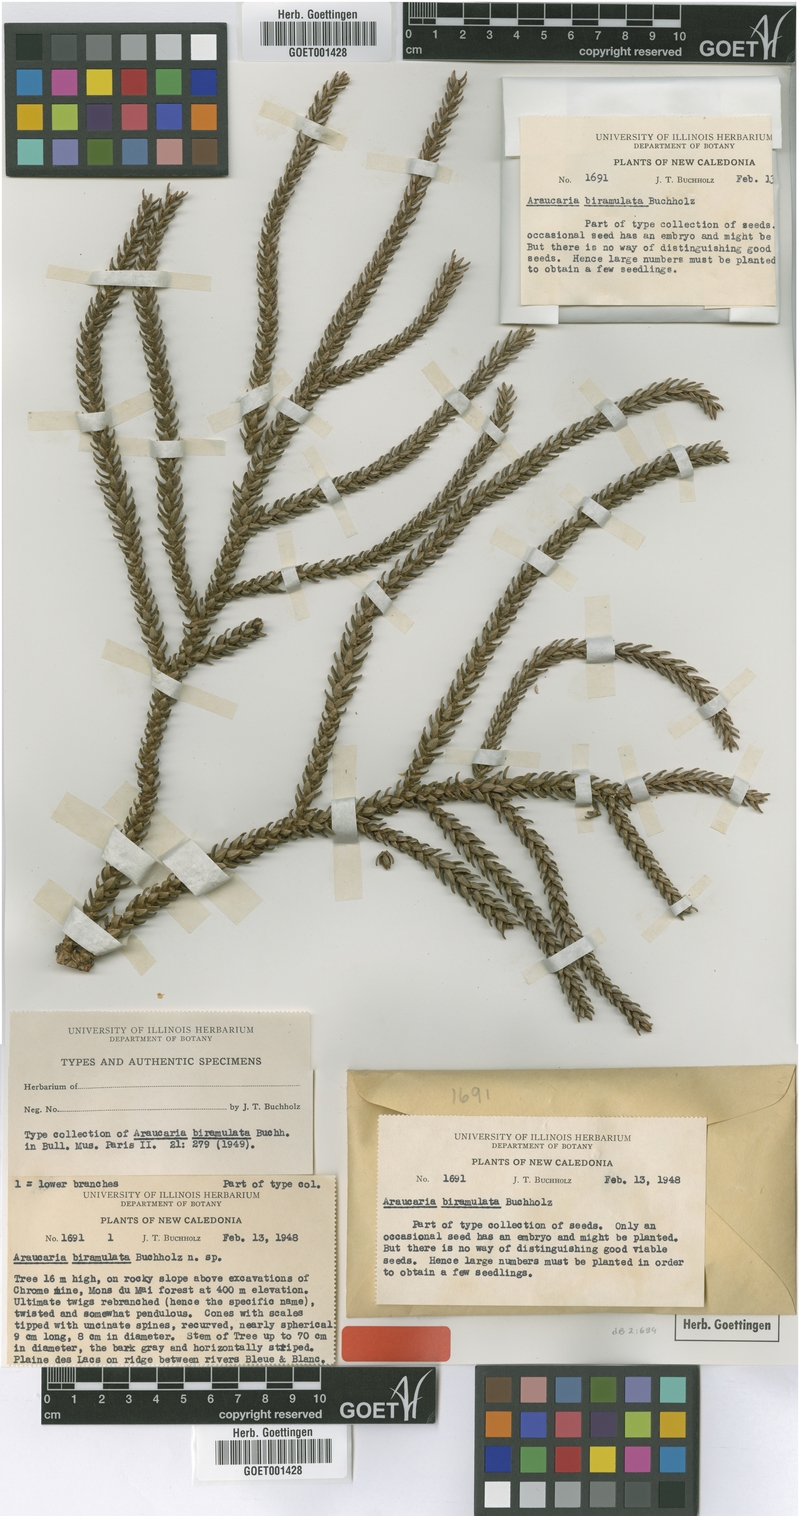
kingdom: Plantae
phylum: Tracheophyta
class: Pinopsida
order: Pinales
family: Araucariaceae
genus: Araucaria
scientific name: Araucaria biramulata
